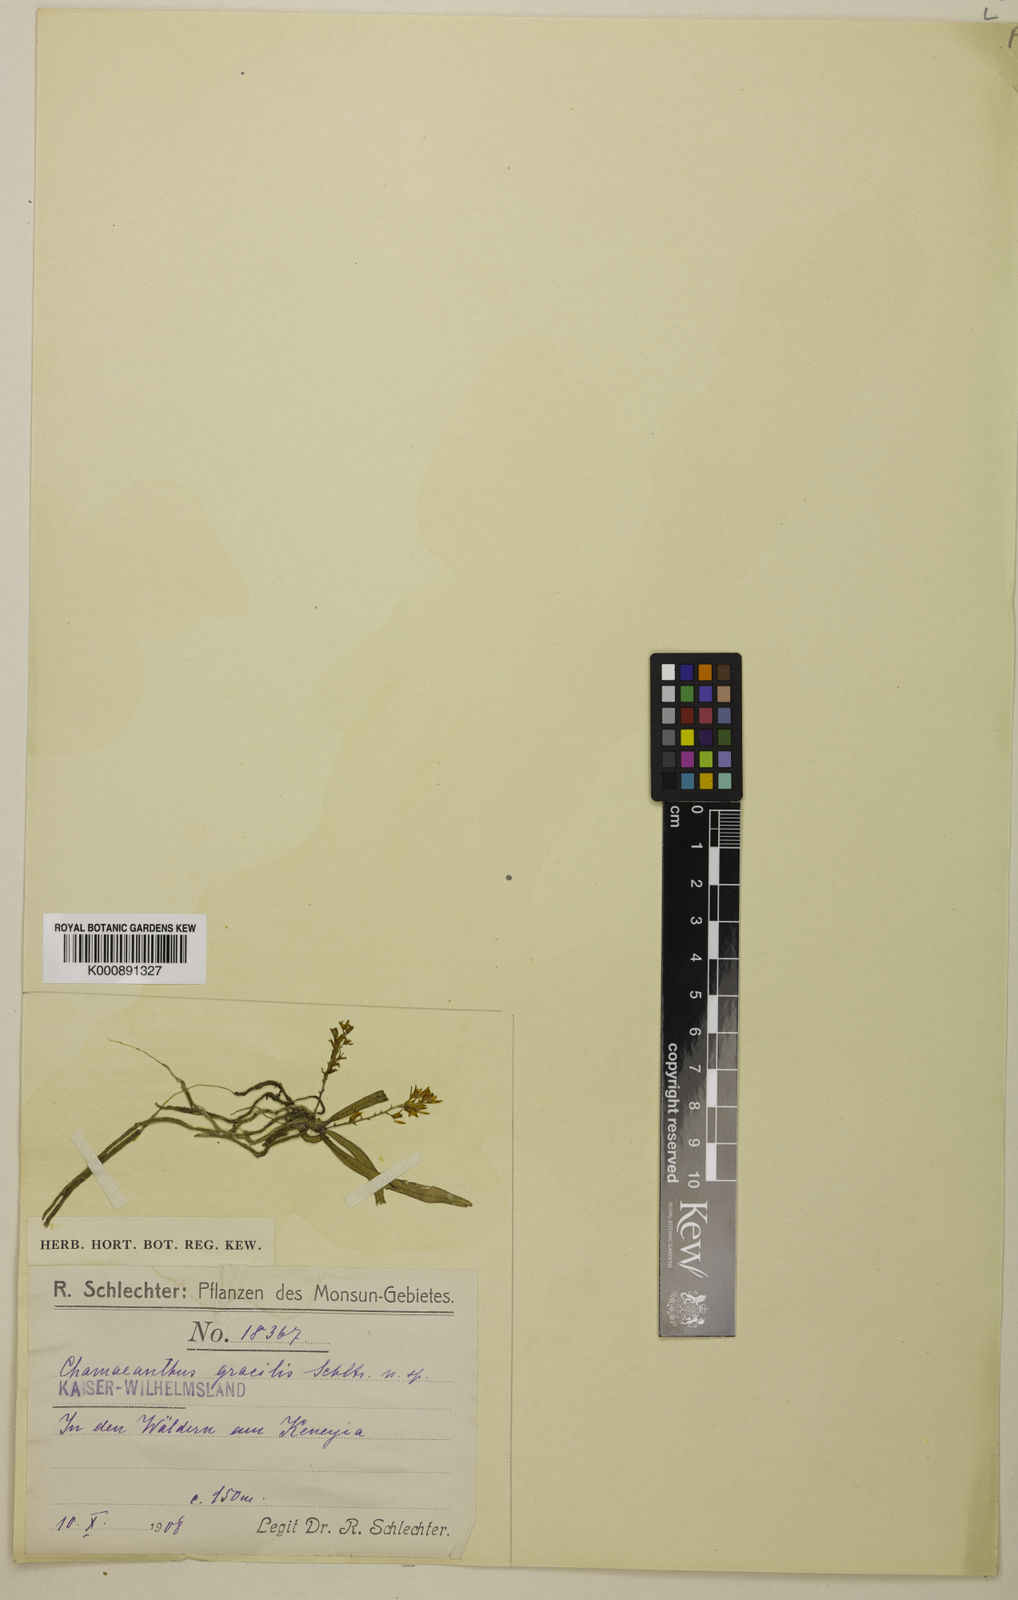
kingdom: Plantae
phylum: Tracheophyta
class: Liliopsida
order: Asparagales
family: Orchidaceae
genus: Bogoria
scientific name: Bogoria gracile
